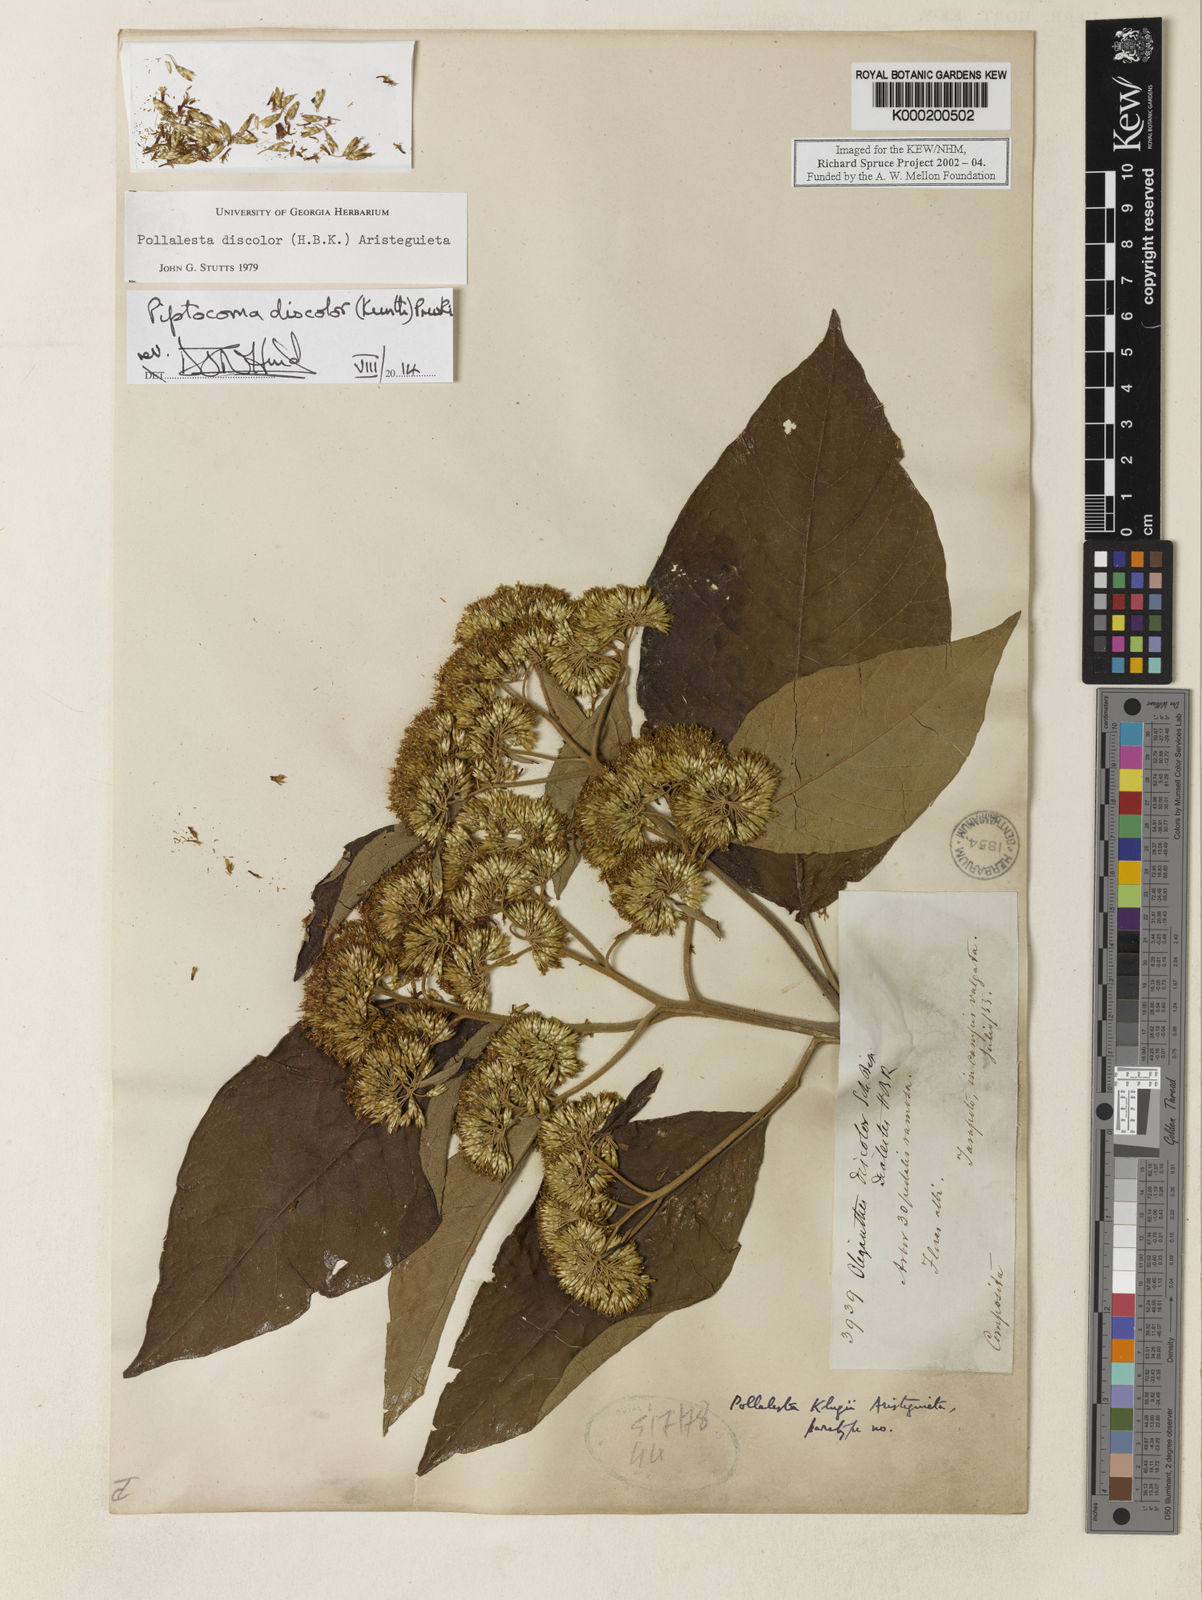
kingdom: Plantae
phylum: Tracheophyta
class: Magnoliopsida
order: Asterales
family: Asteraceae
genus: Piptocoma
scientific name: Piptocoma discolor
